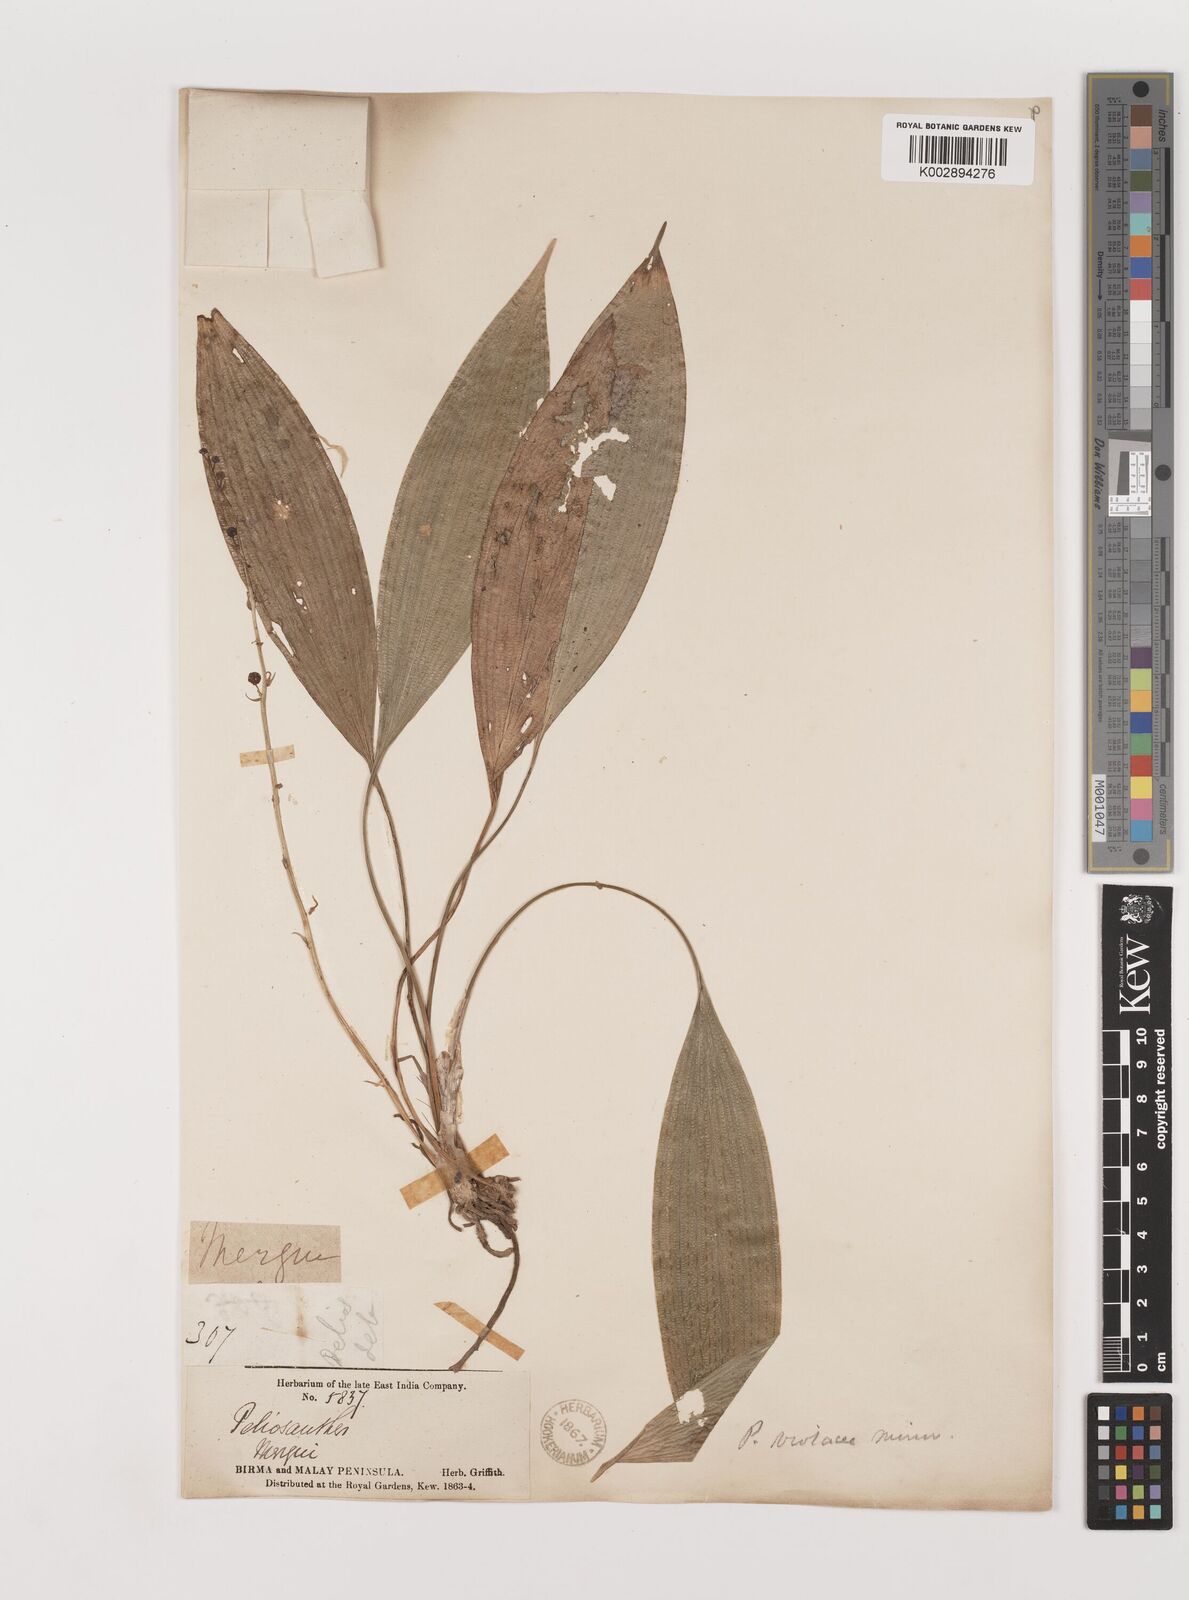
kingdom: Plantae
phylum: Tracheophyta
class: Liliopsida
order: Asparagales
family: Asparagaceae
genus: Peliosanthes
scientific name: Peliosanthes teta
